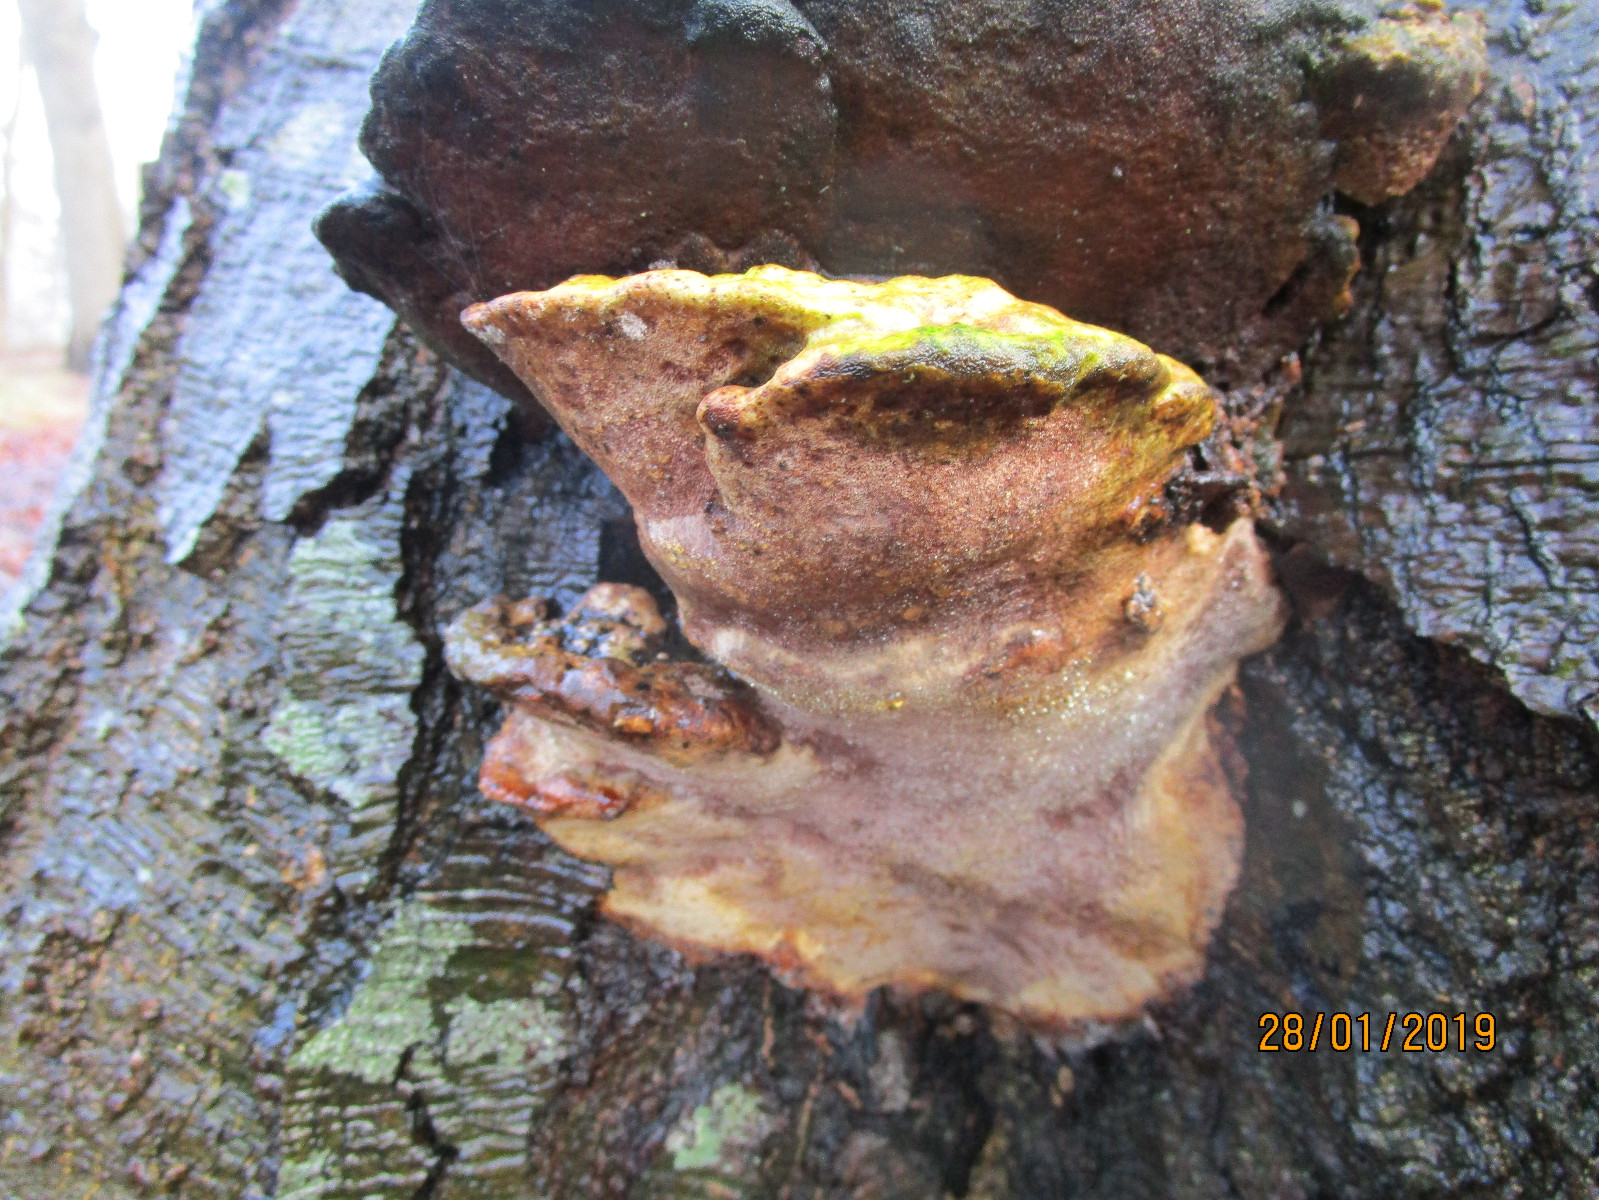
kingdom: Fungi
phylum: Basidiomycota
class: Agaricomycetes
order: Polyporales
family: Polyporaceae
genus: Vanderbylia
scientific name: Vanderbylia fraxinea
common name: stor kanelporesvamp
